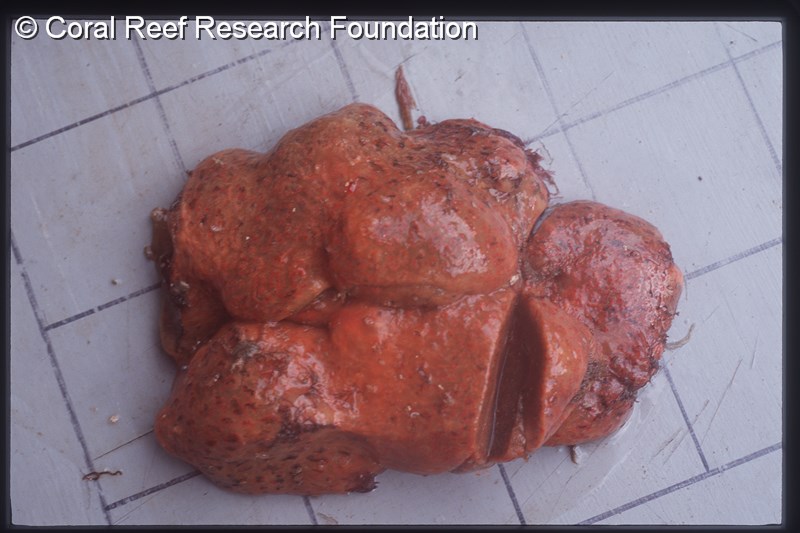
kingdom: Animalia
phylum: Chordata
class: Ascidiacea
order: Aplousobranchia
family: Polyclinidae
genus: Aplidium
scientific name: Aplidium flavolineatum
